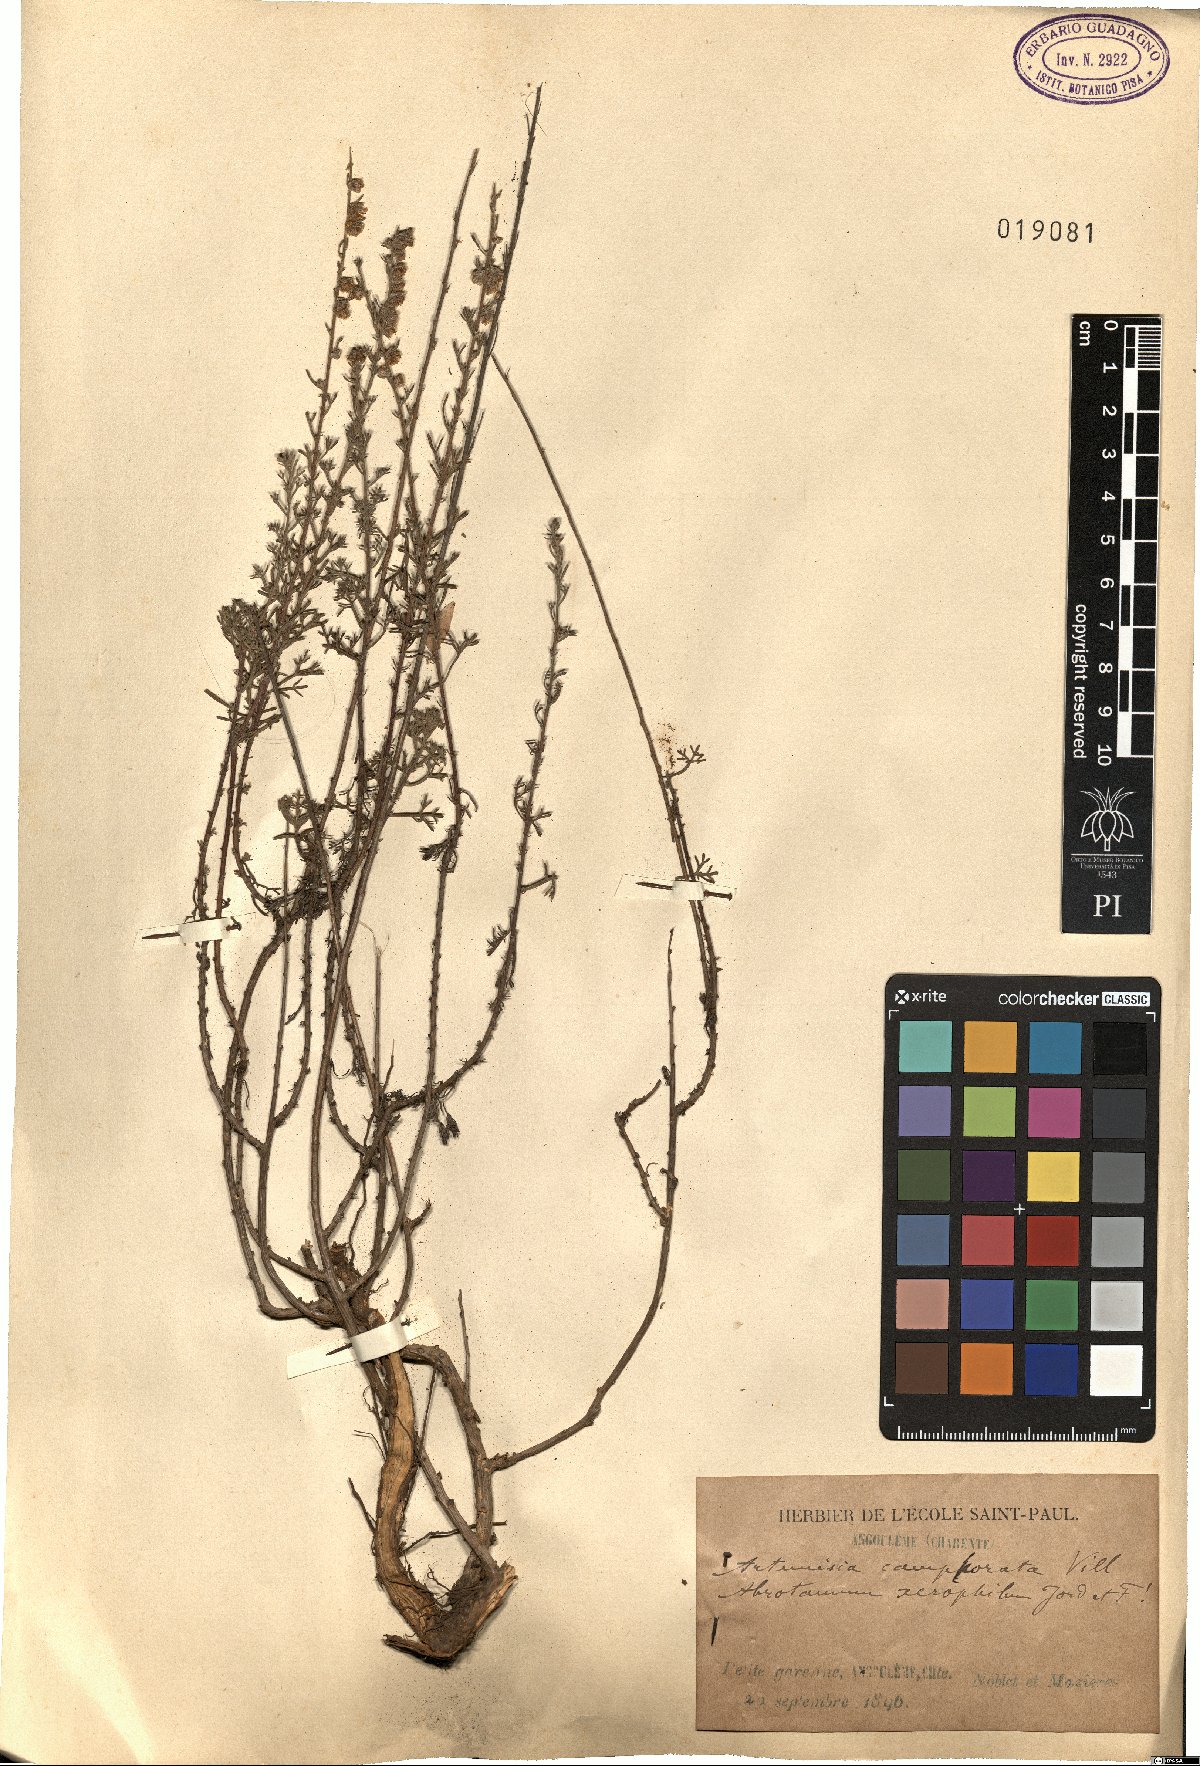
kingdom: Plantae
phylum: Tracheophyta
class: Magnoliopsida
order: Asterales
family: Asteraceae
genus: Artemisia
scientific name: Artemisia alba
